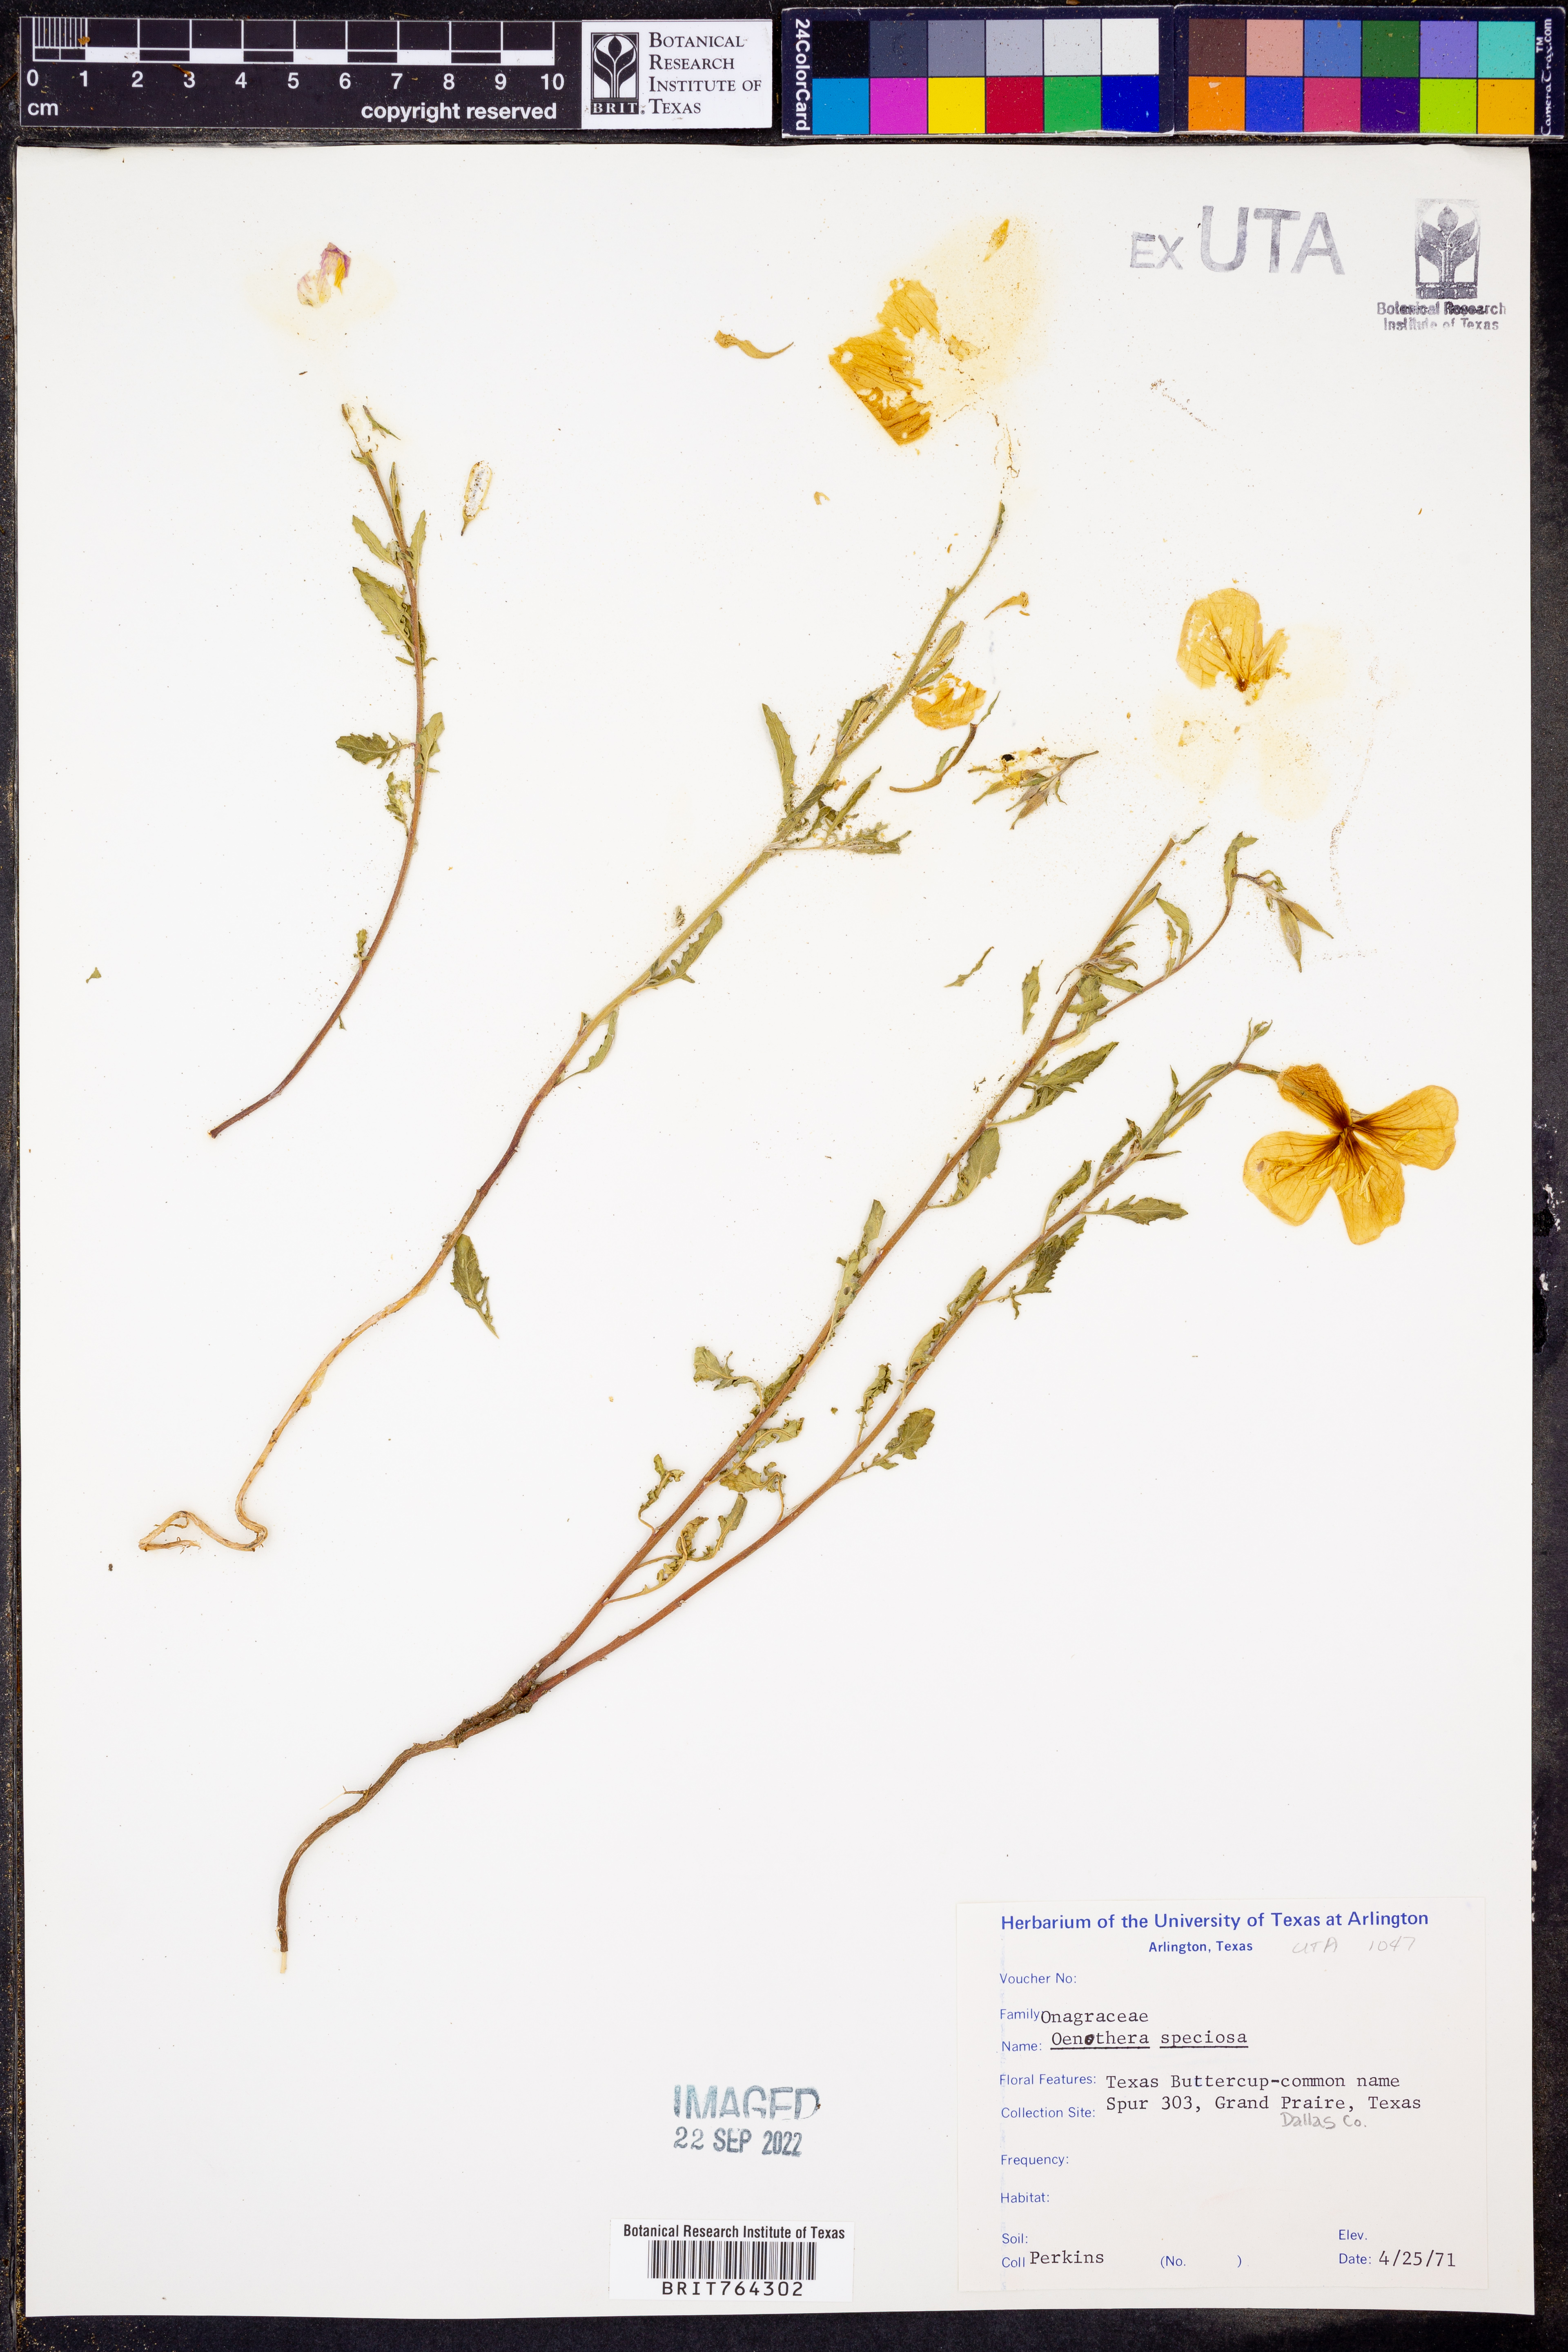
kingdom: Plantae
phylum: Tracheophyta
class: Magnoliopsida
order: Myrtales
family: Onagraceae
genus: Oenothera
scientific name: Oenothera speciosa
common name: White evening-primrose
